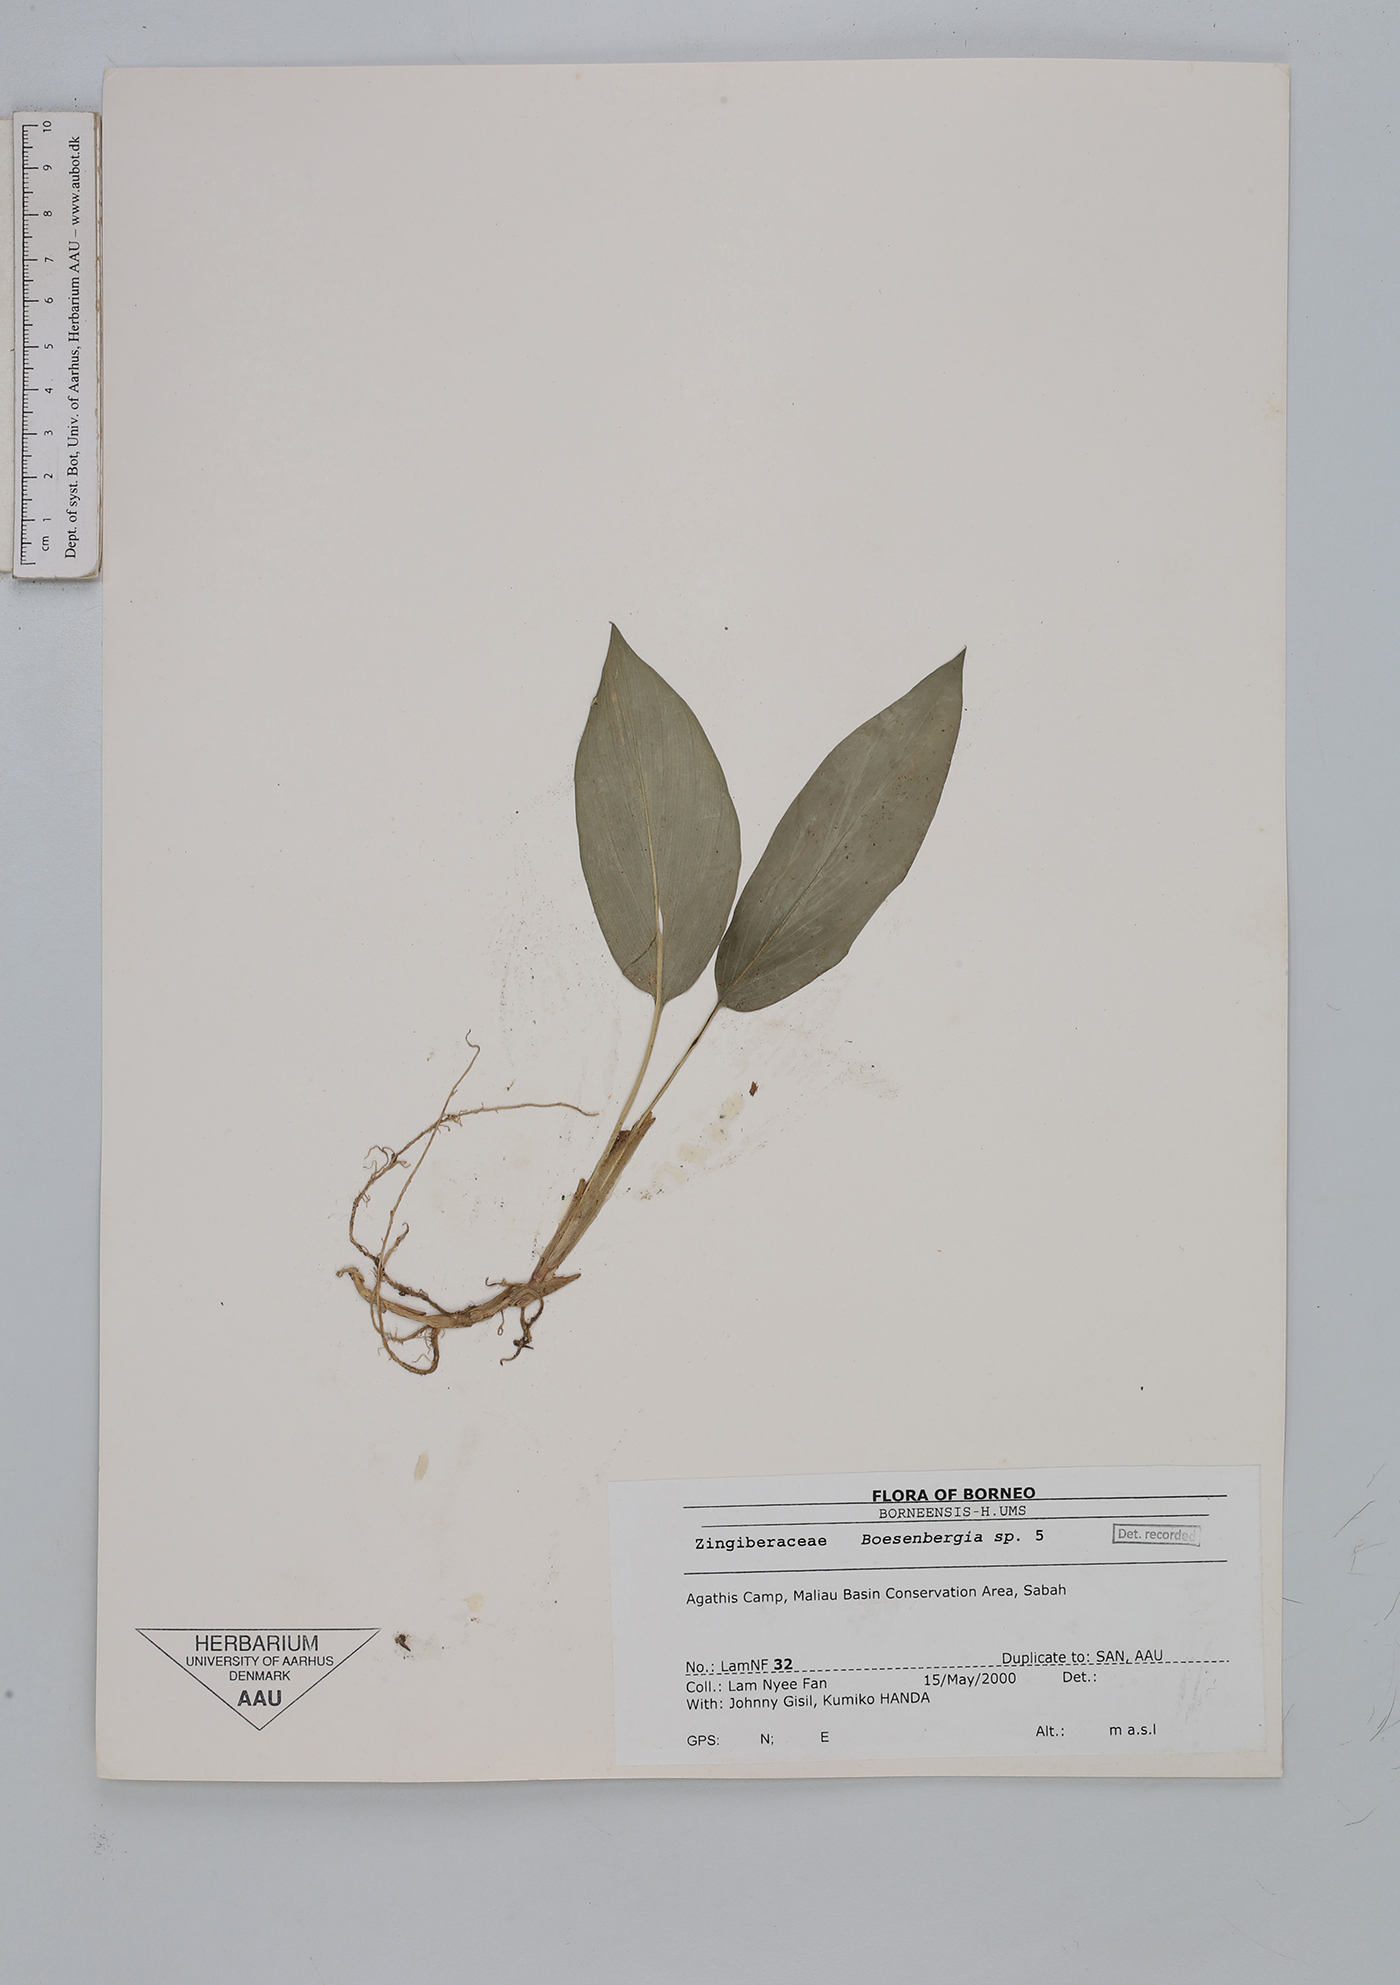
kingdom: Plantae
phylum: Tracheophyta
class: Liliopsida
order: Zingiberales
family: Zingiberaceae
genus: Boesenbergia
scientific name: Boesenbergia
